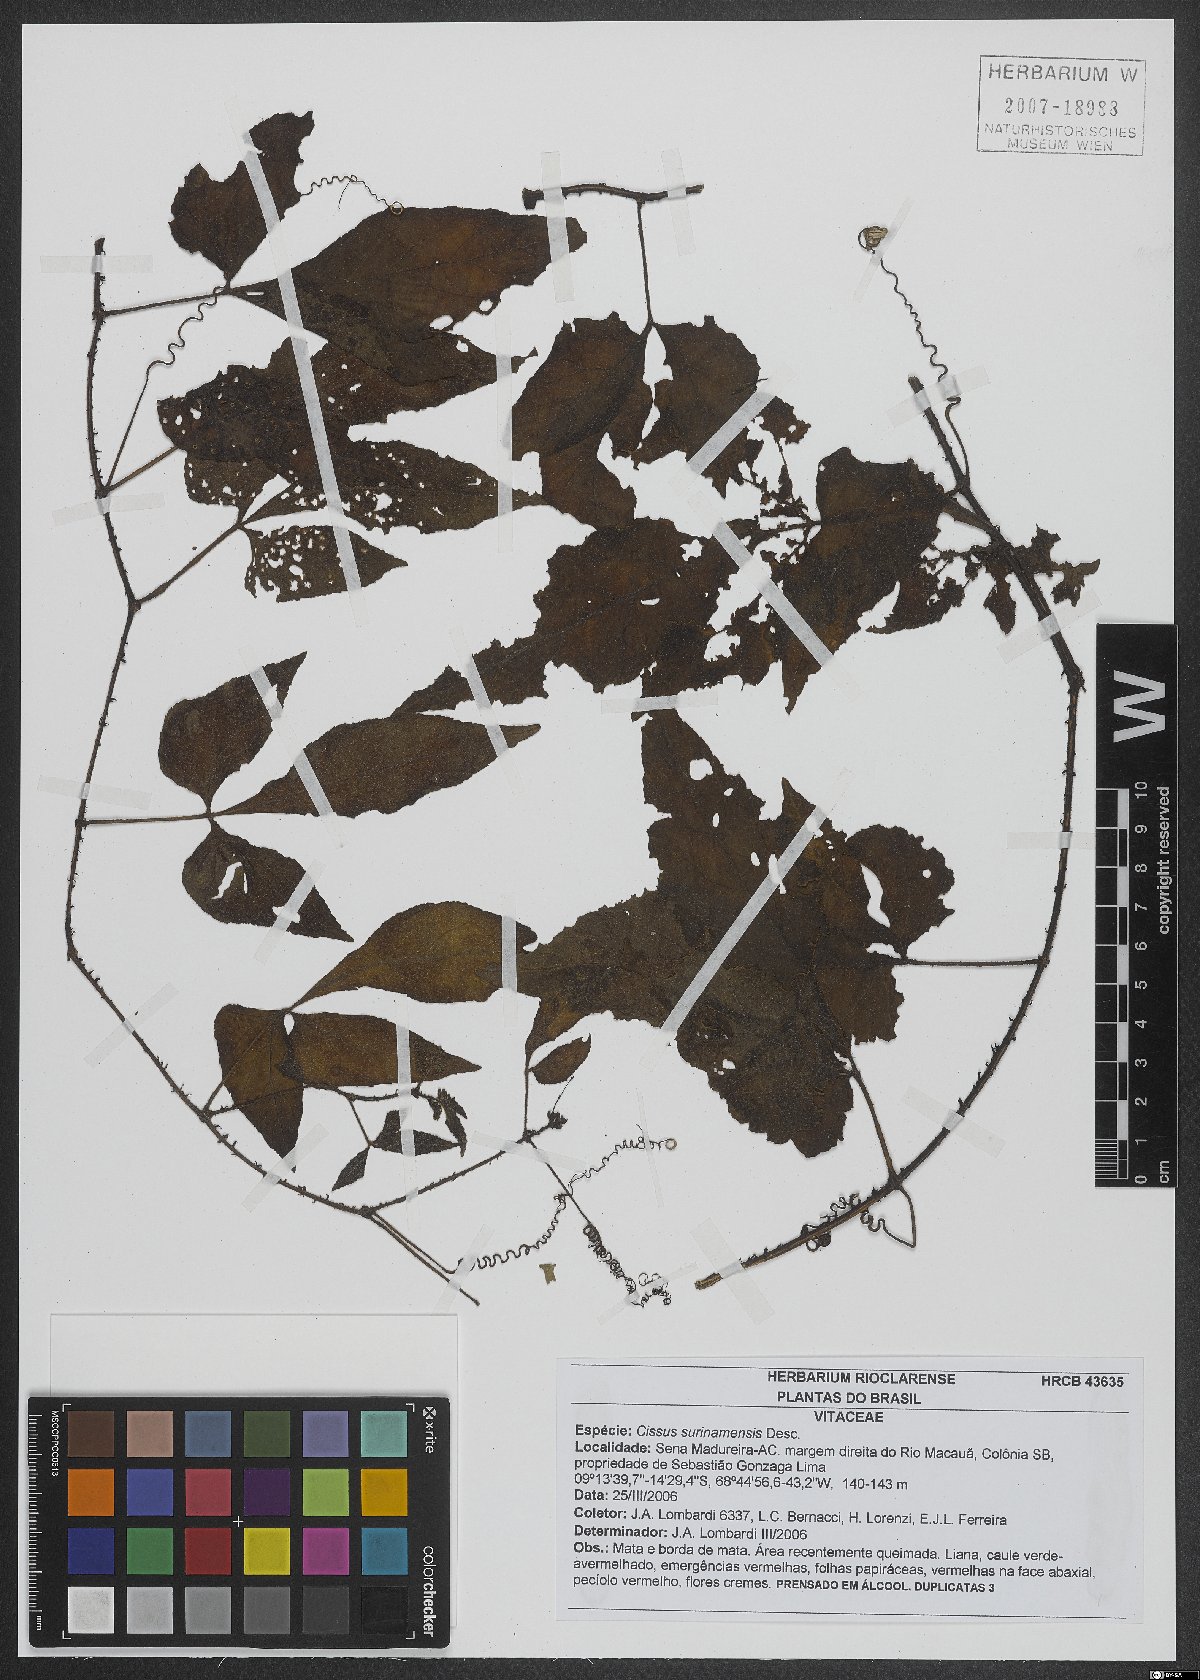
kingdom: Plantae
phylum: Tracheophyta
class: Magnoliopsida
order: Vitales
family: Vitaceae
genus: Cissus
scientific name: Cissus surinamensis
